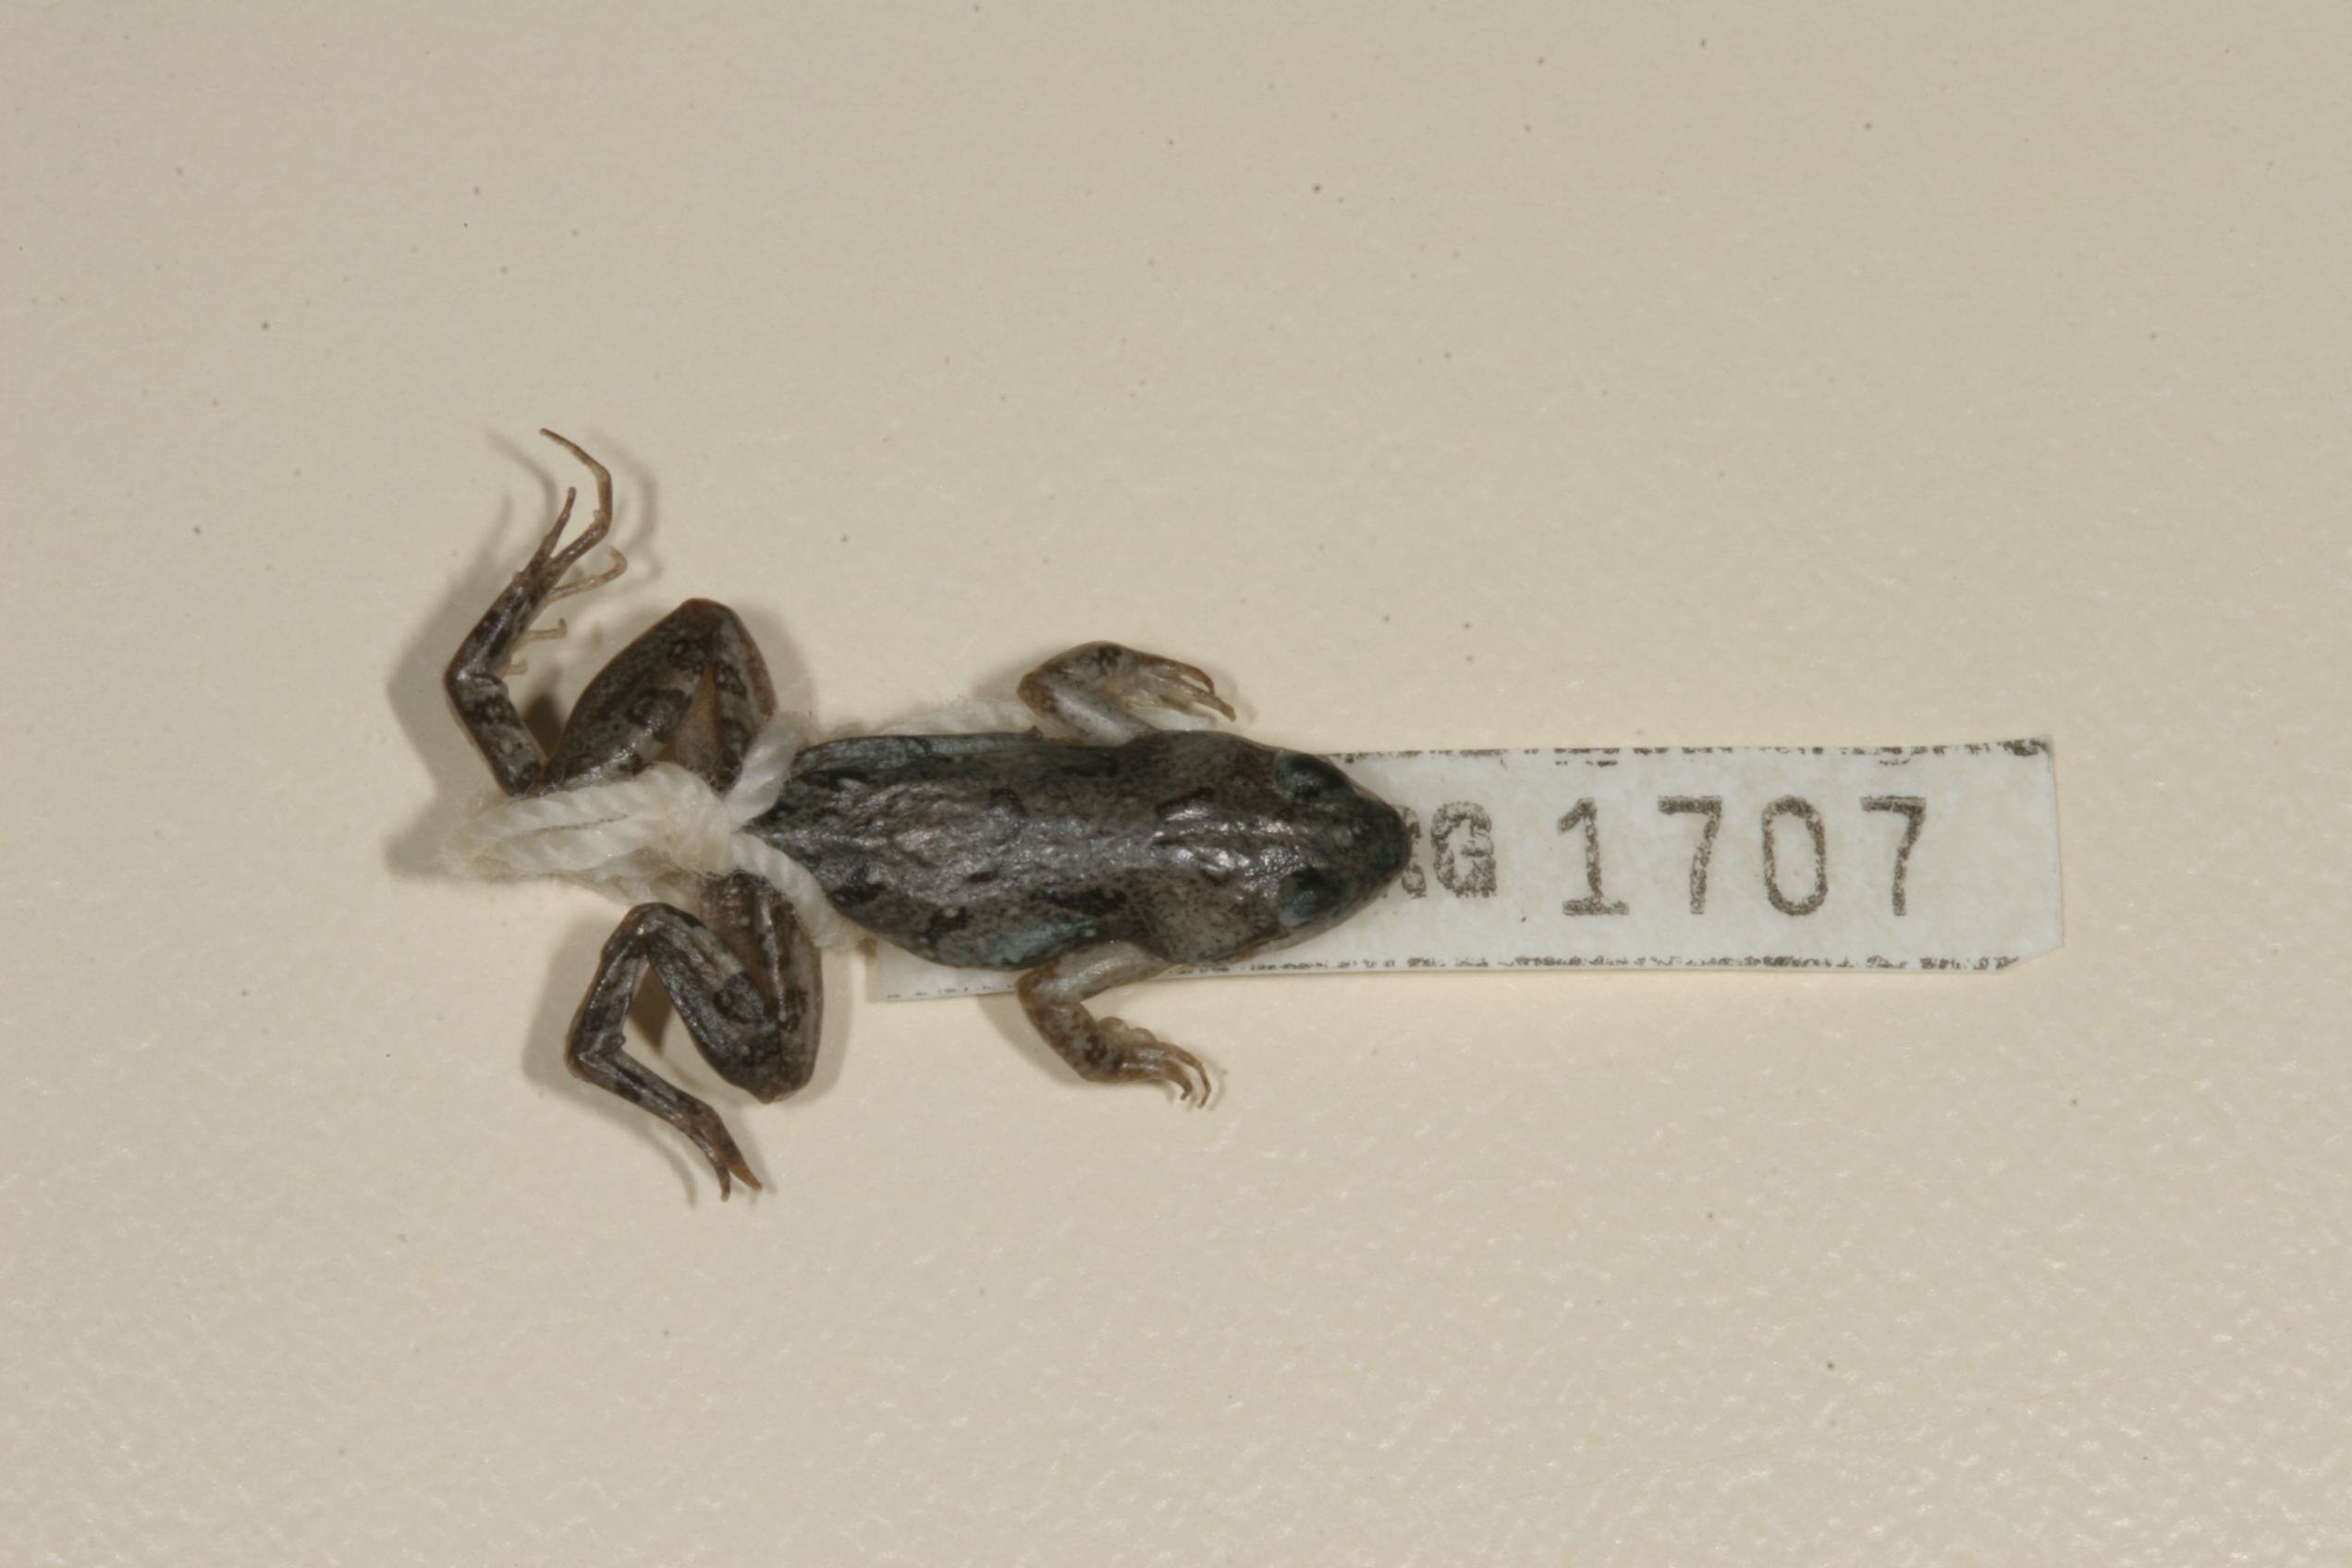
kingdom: Animalia
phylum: Chordata
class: Amphibia
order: Anura
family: Pyxicephalidae
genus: Cacosternum
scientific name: Cacosternum boettgeri
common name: Boettger's frog
